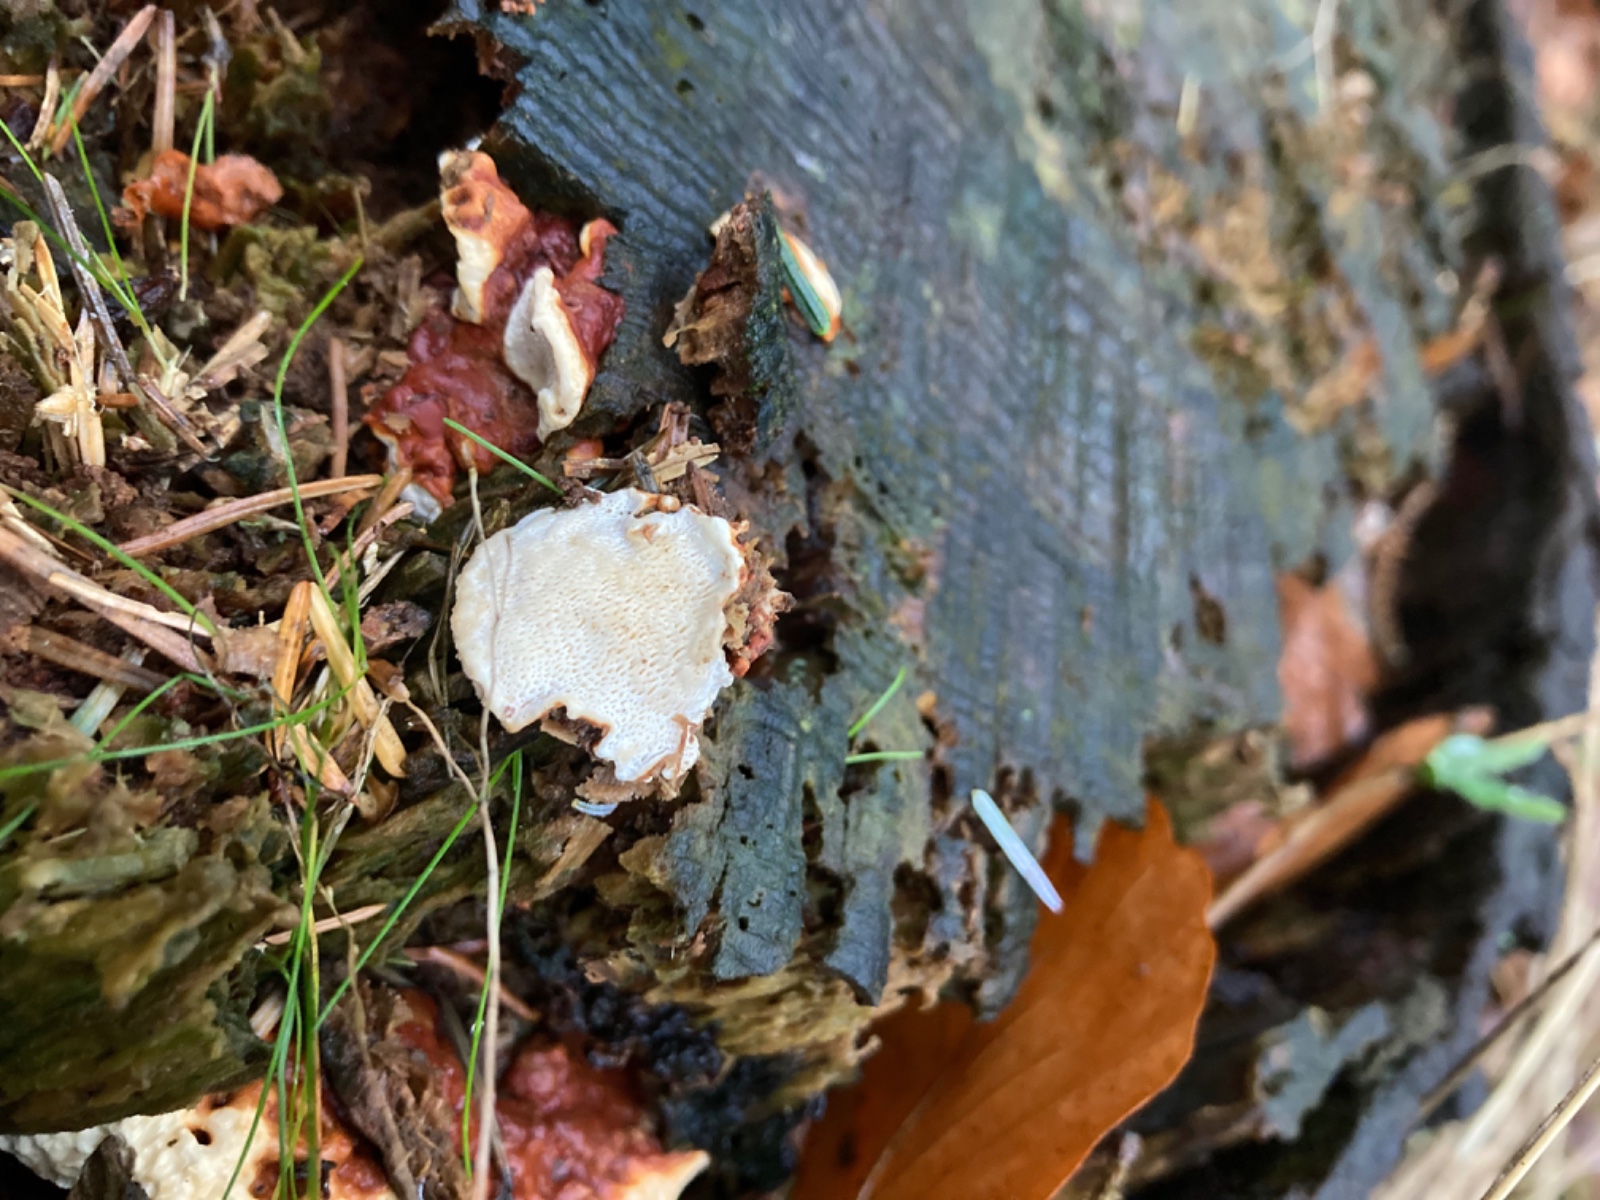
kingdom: Fungi
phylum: Basidiomycota
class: Agaricomycetes
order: Russulales
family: Bondarzewiaceae
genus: Heterobasidion
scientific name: Heterobasidion annosum
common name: almindelig rodfordærver
